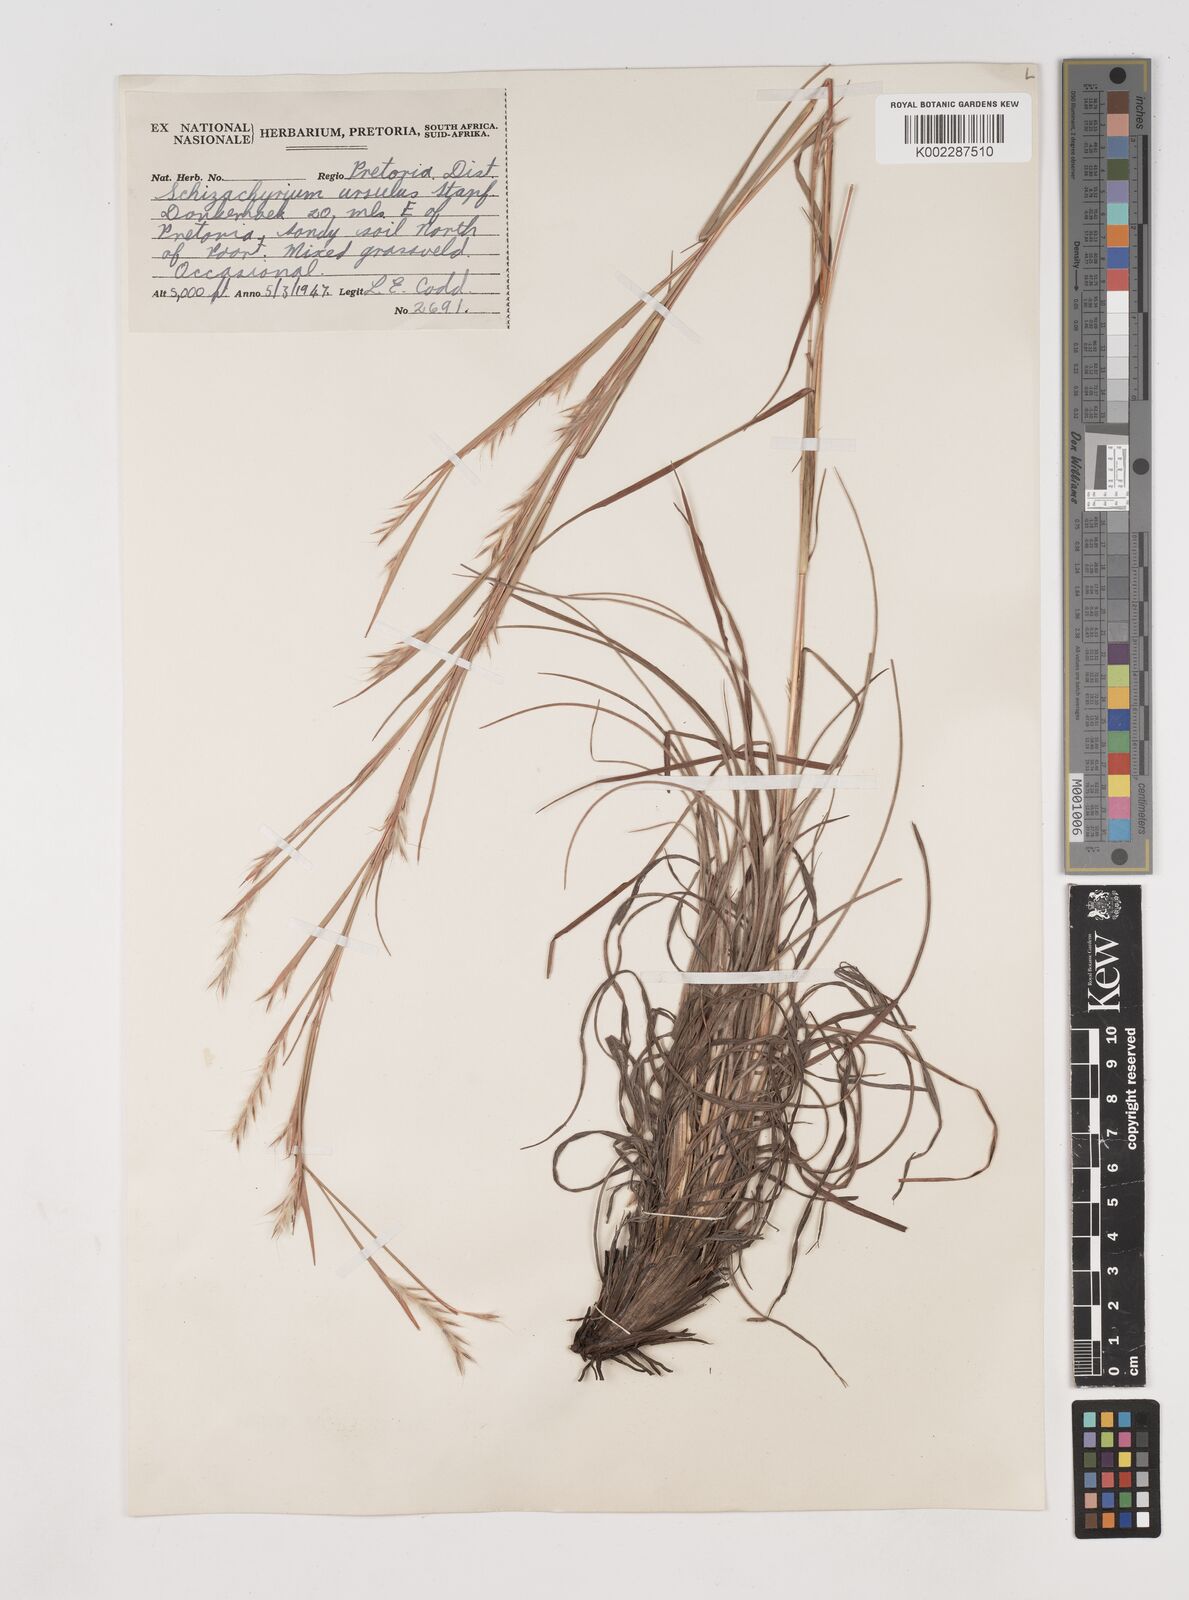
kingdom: Plantae
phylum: Tracheophyta
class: Liliopsida
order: Poales
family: Poaceae
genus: Schizachyrium
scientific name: Schizachyrium jeffreysii
